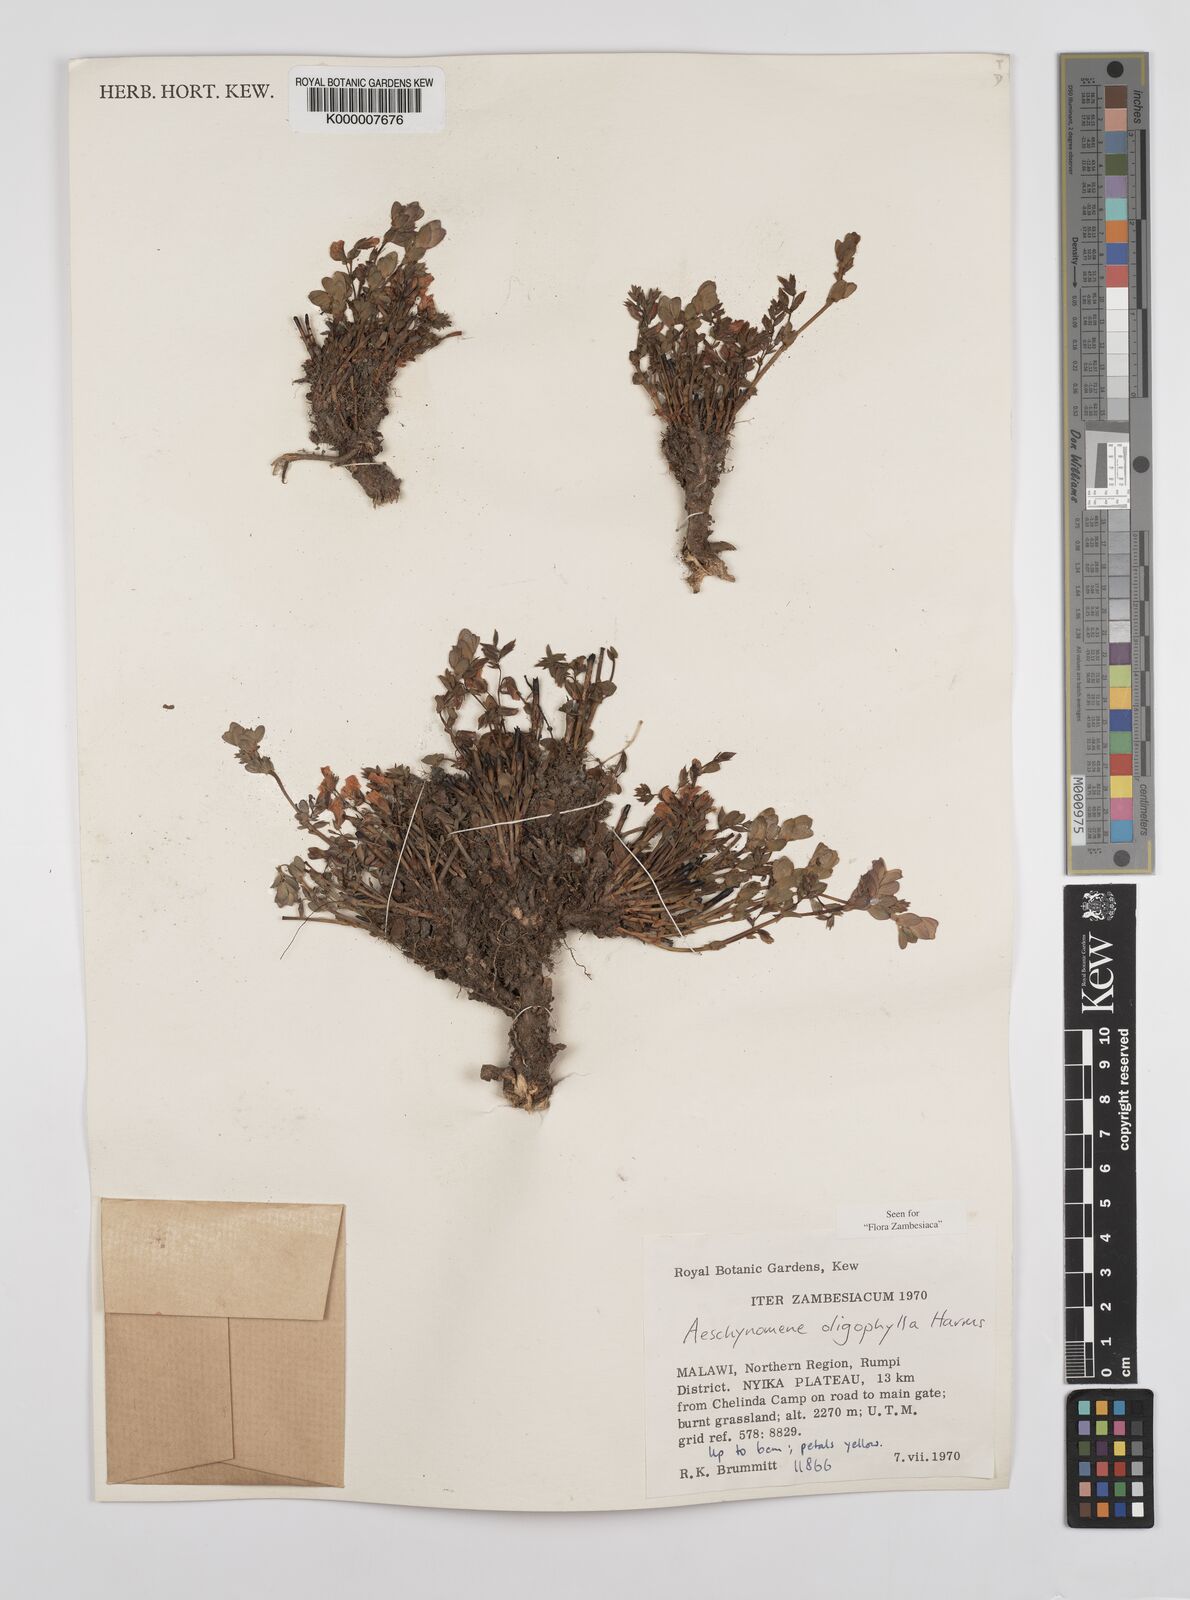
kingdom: Plantae
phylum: Tracheophyta
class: Magnoliopsida
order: Fabales
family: Fabaceae
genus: Aeschynomene
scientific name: Aeschynomene oligophylla
